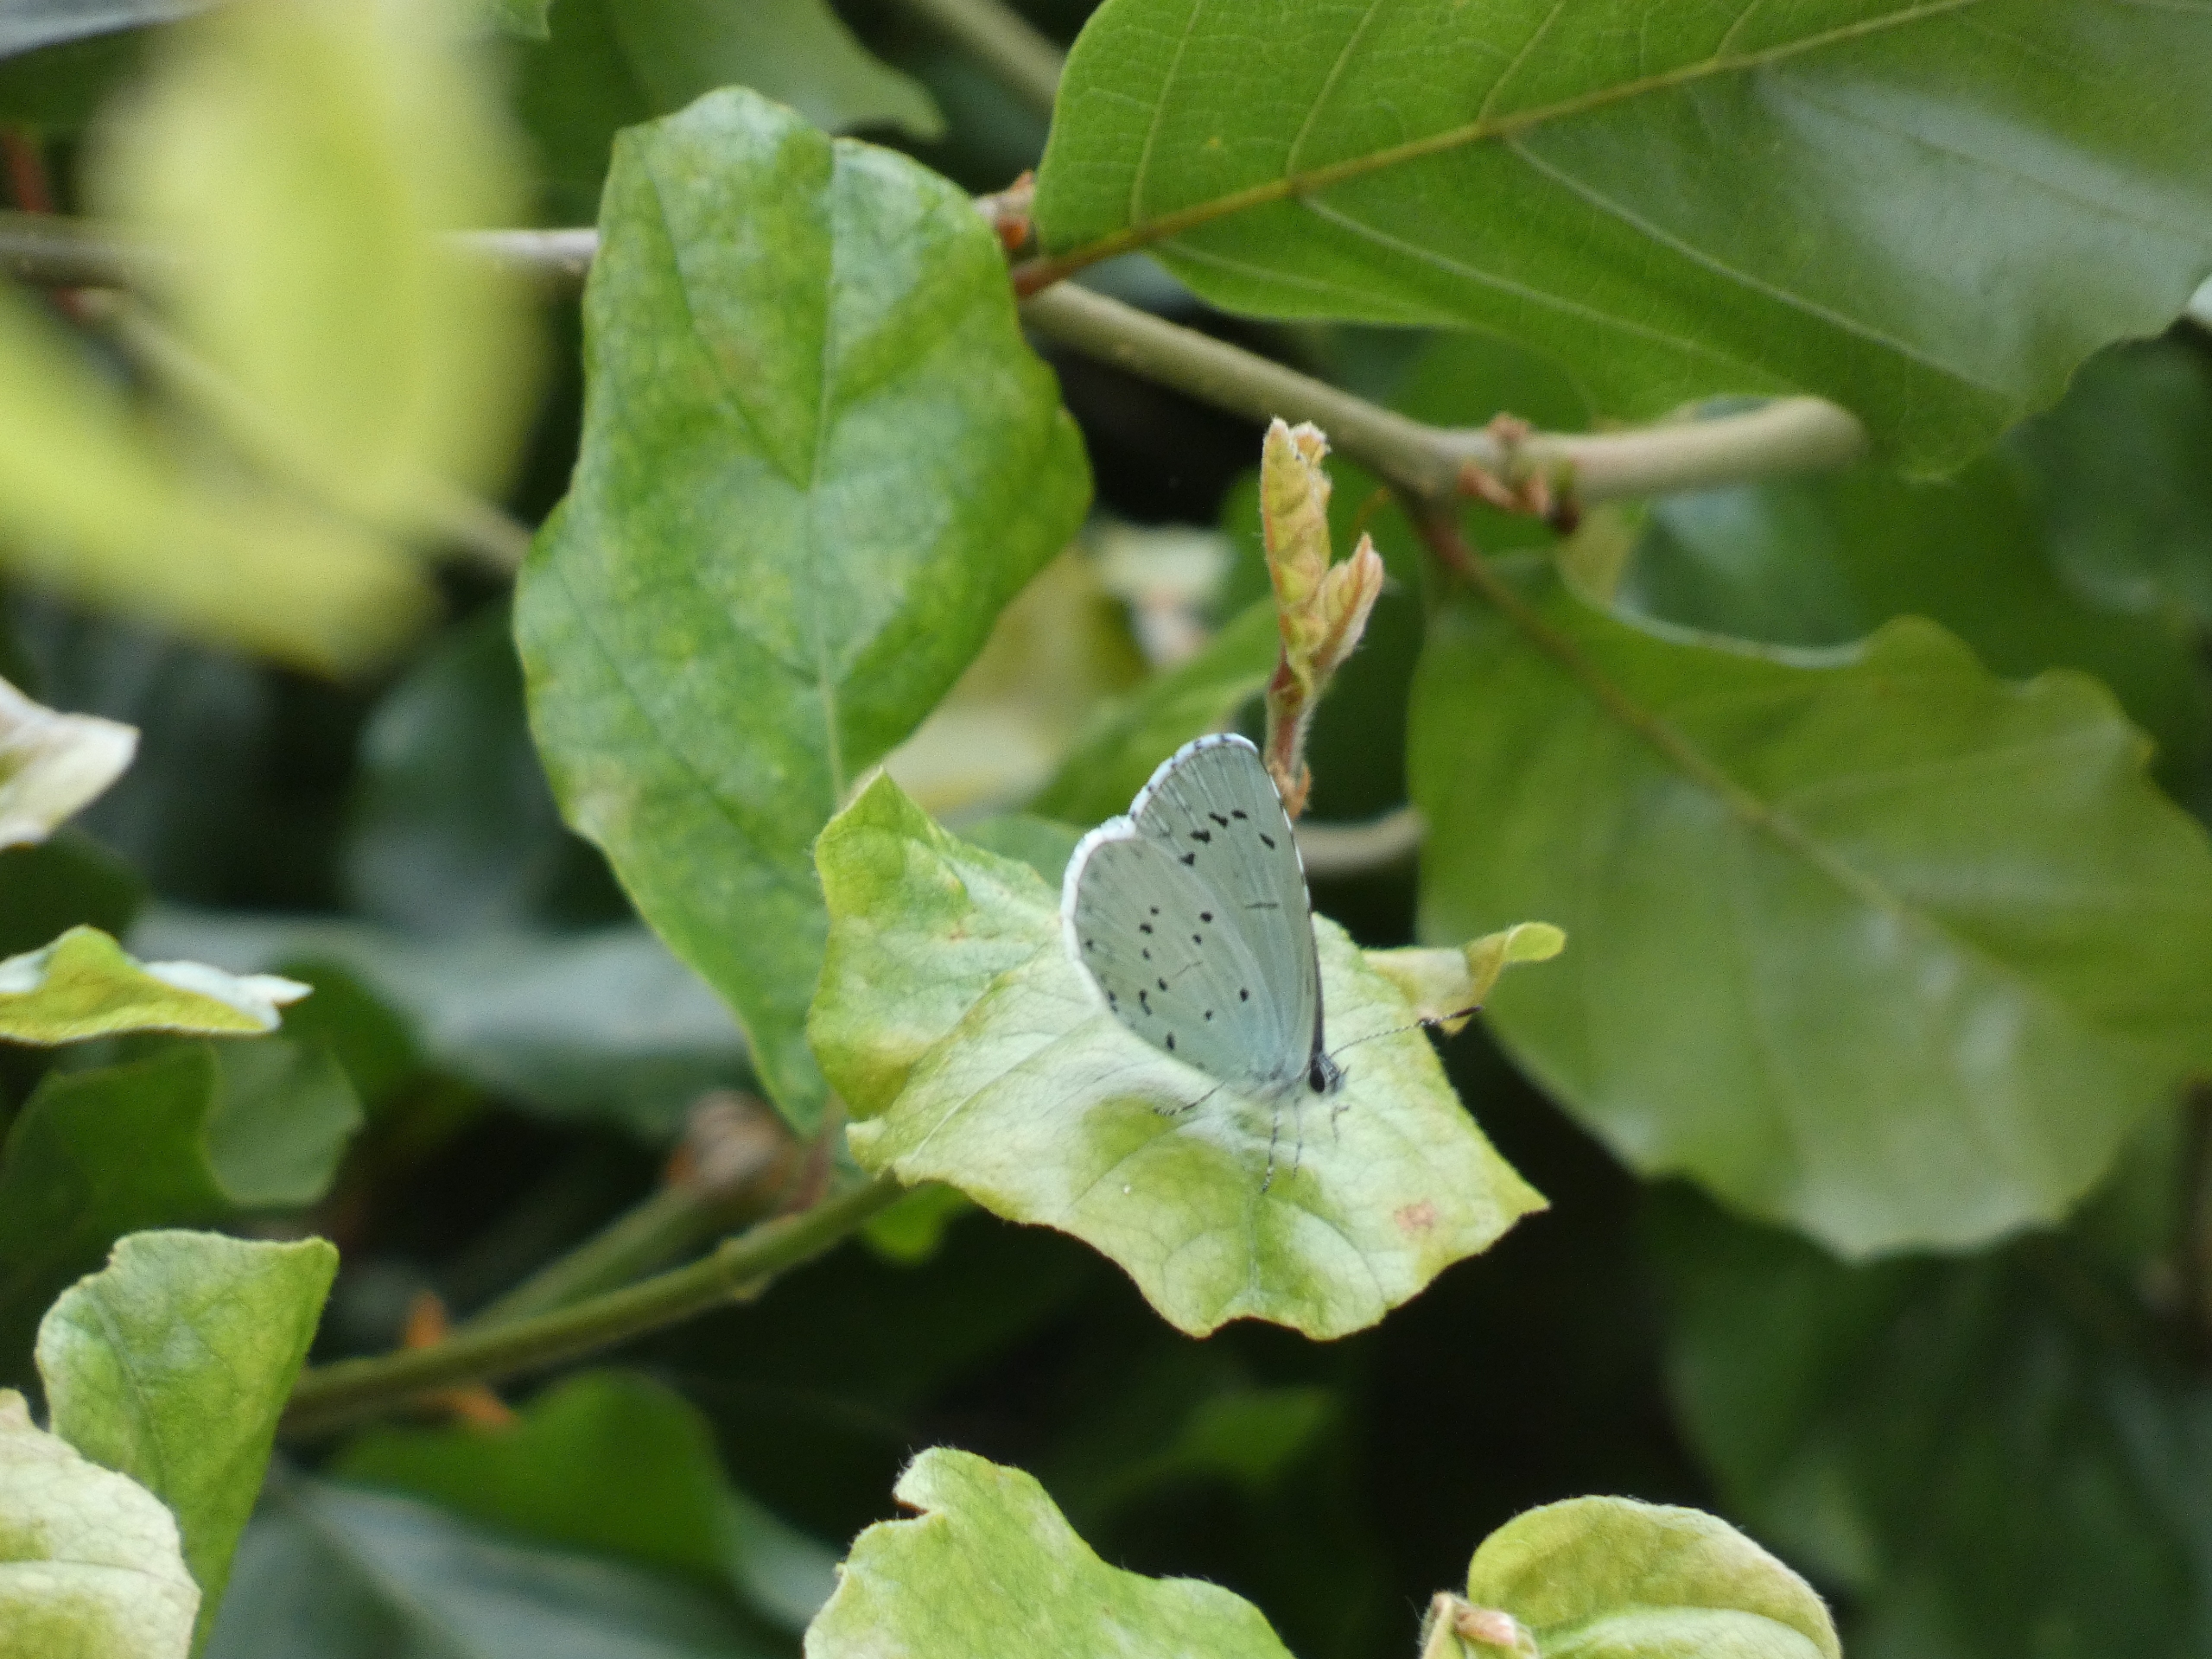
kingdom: Animalia
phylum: Arthropoda
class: Insecta
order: Lepidoptera
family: Lycaenidae
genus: Celastrina
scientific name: Celastrina argiolus
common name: Skovblåfugl
